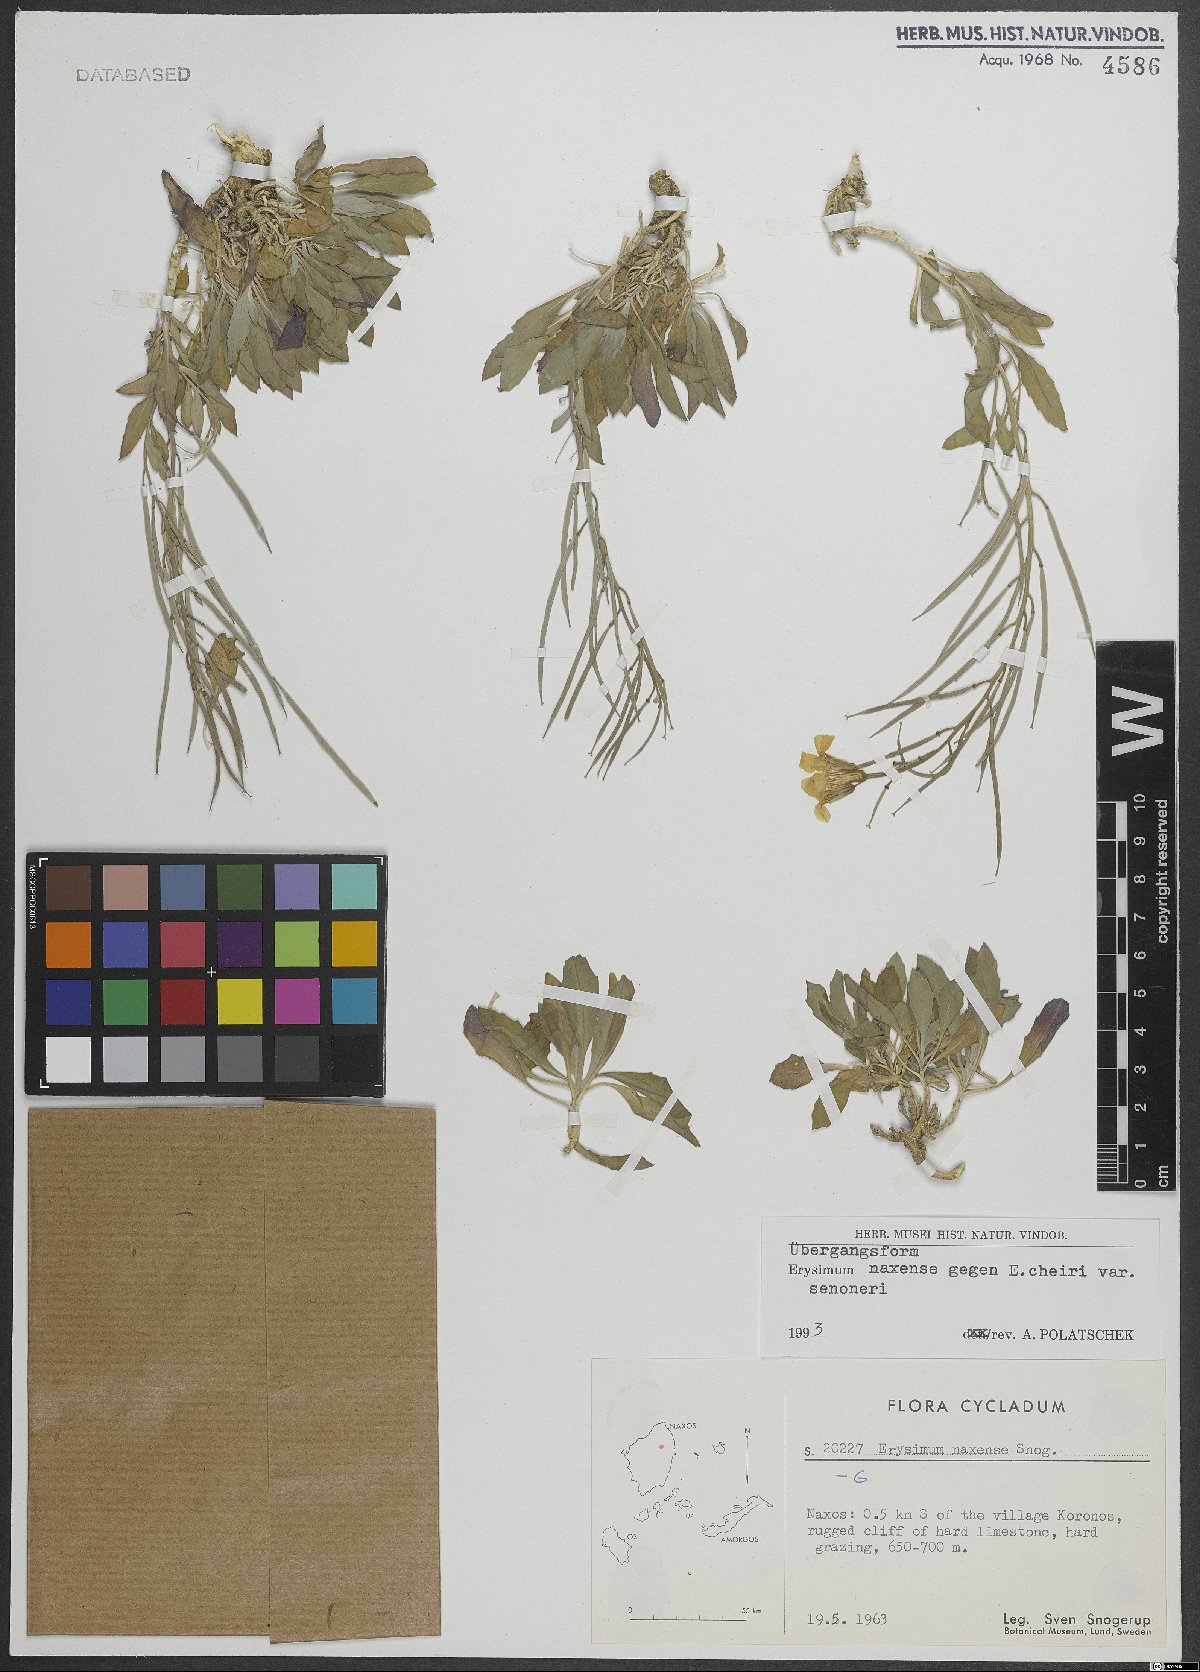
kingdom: Plantae
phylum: Tracheophyta
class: Magnoliopsida
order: Brassicales
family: Brassicaceae
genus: Erysimum
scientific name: Erysimum naxense
